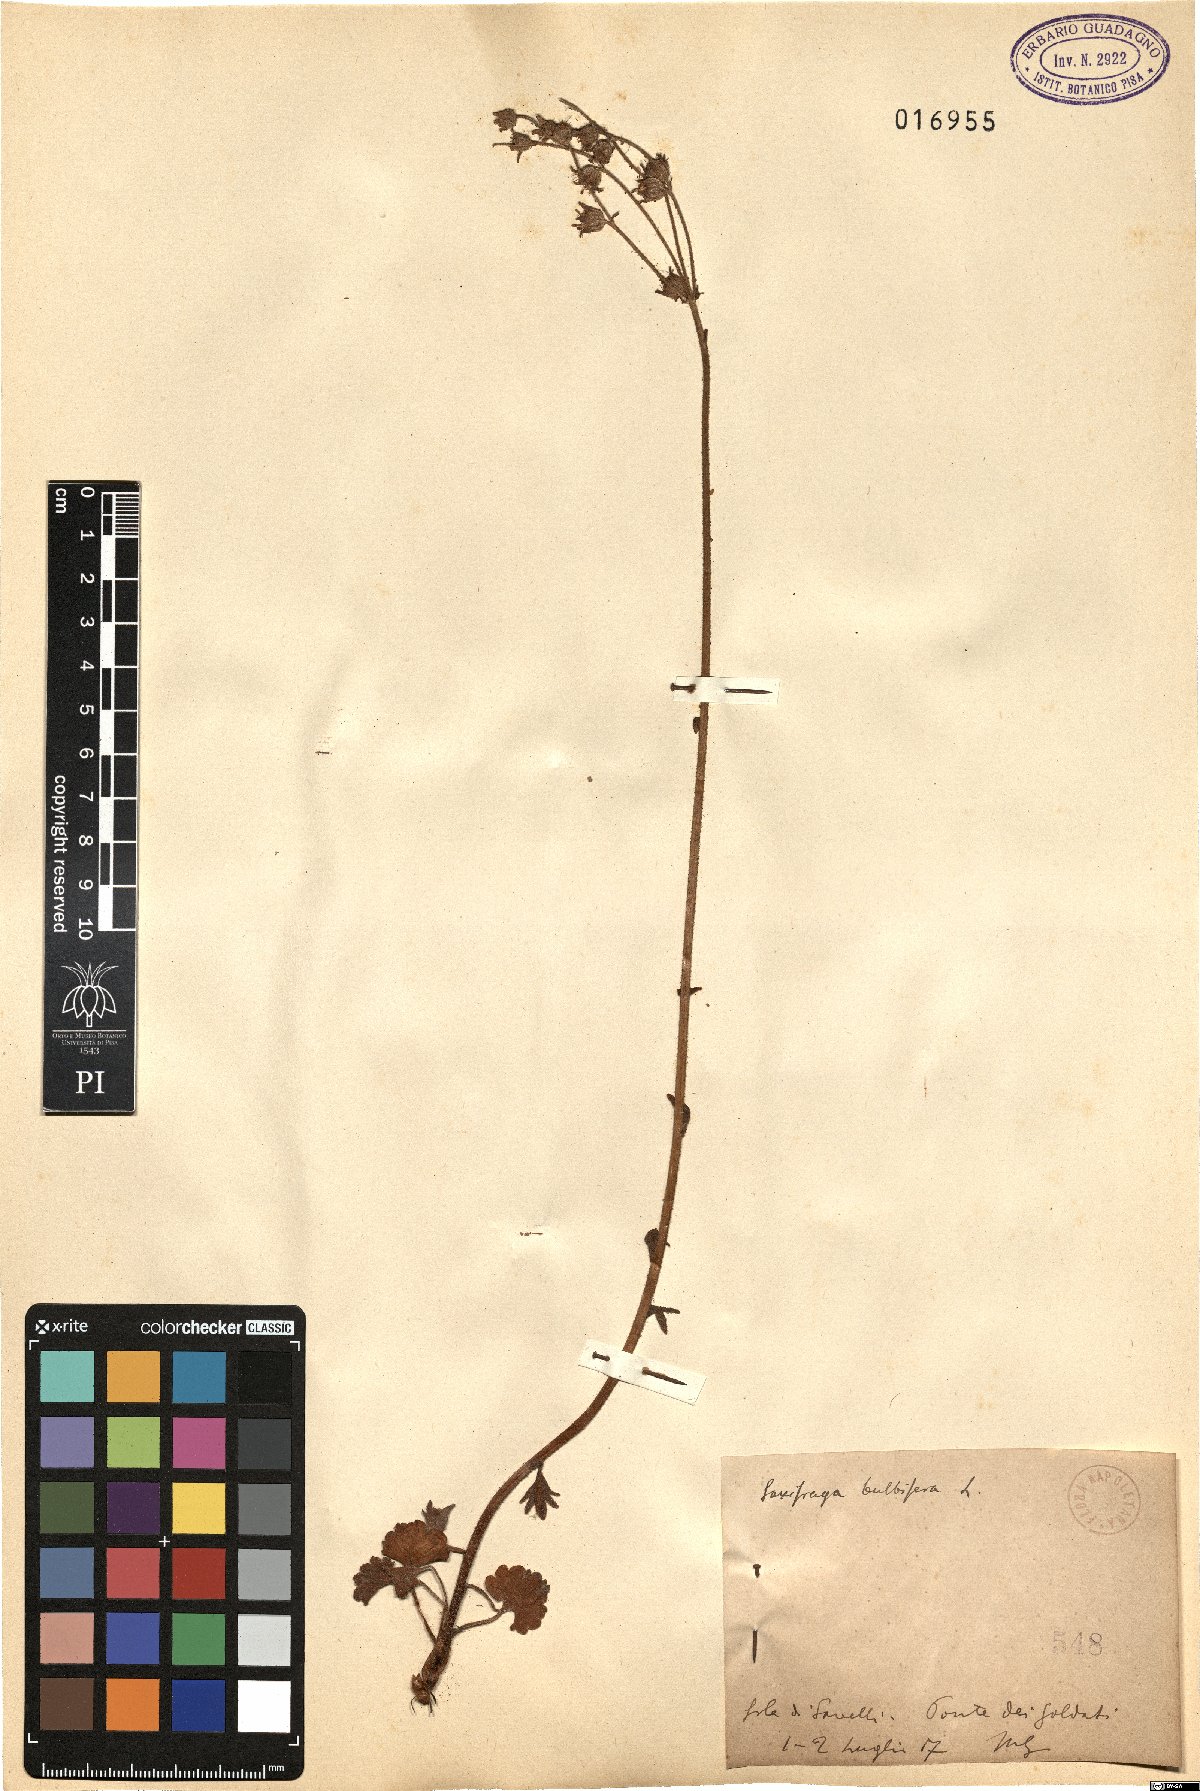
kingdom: Plantae
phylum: Tracheophyta
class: Magnoliopsida
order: Saxifragales
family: Saxifragaceae
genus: Saxifraga
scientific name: Saxifraga bulbifera
